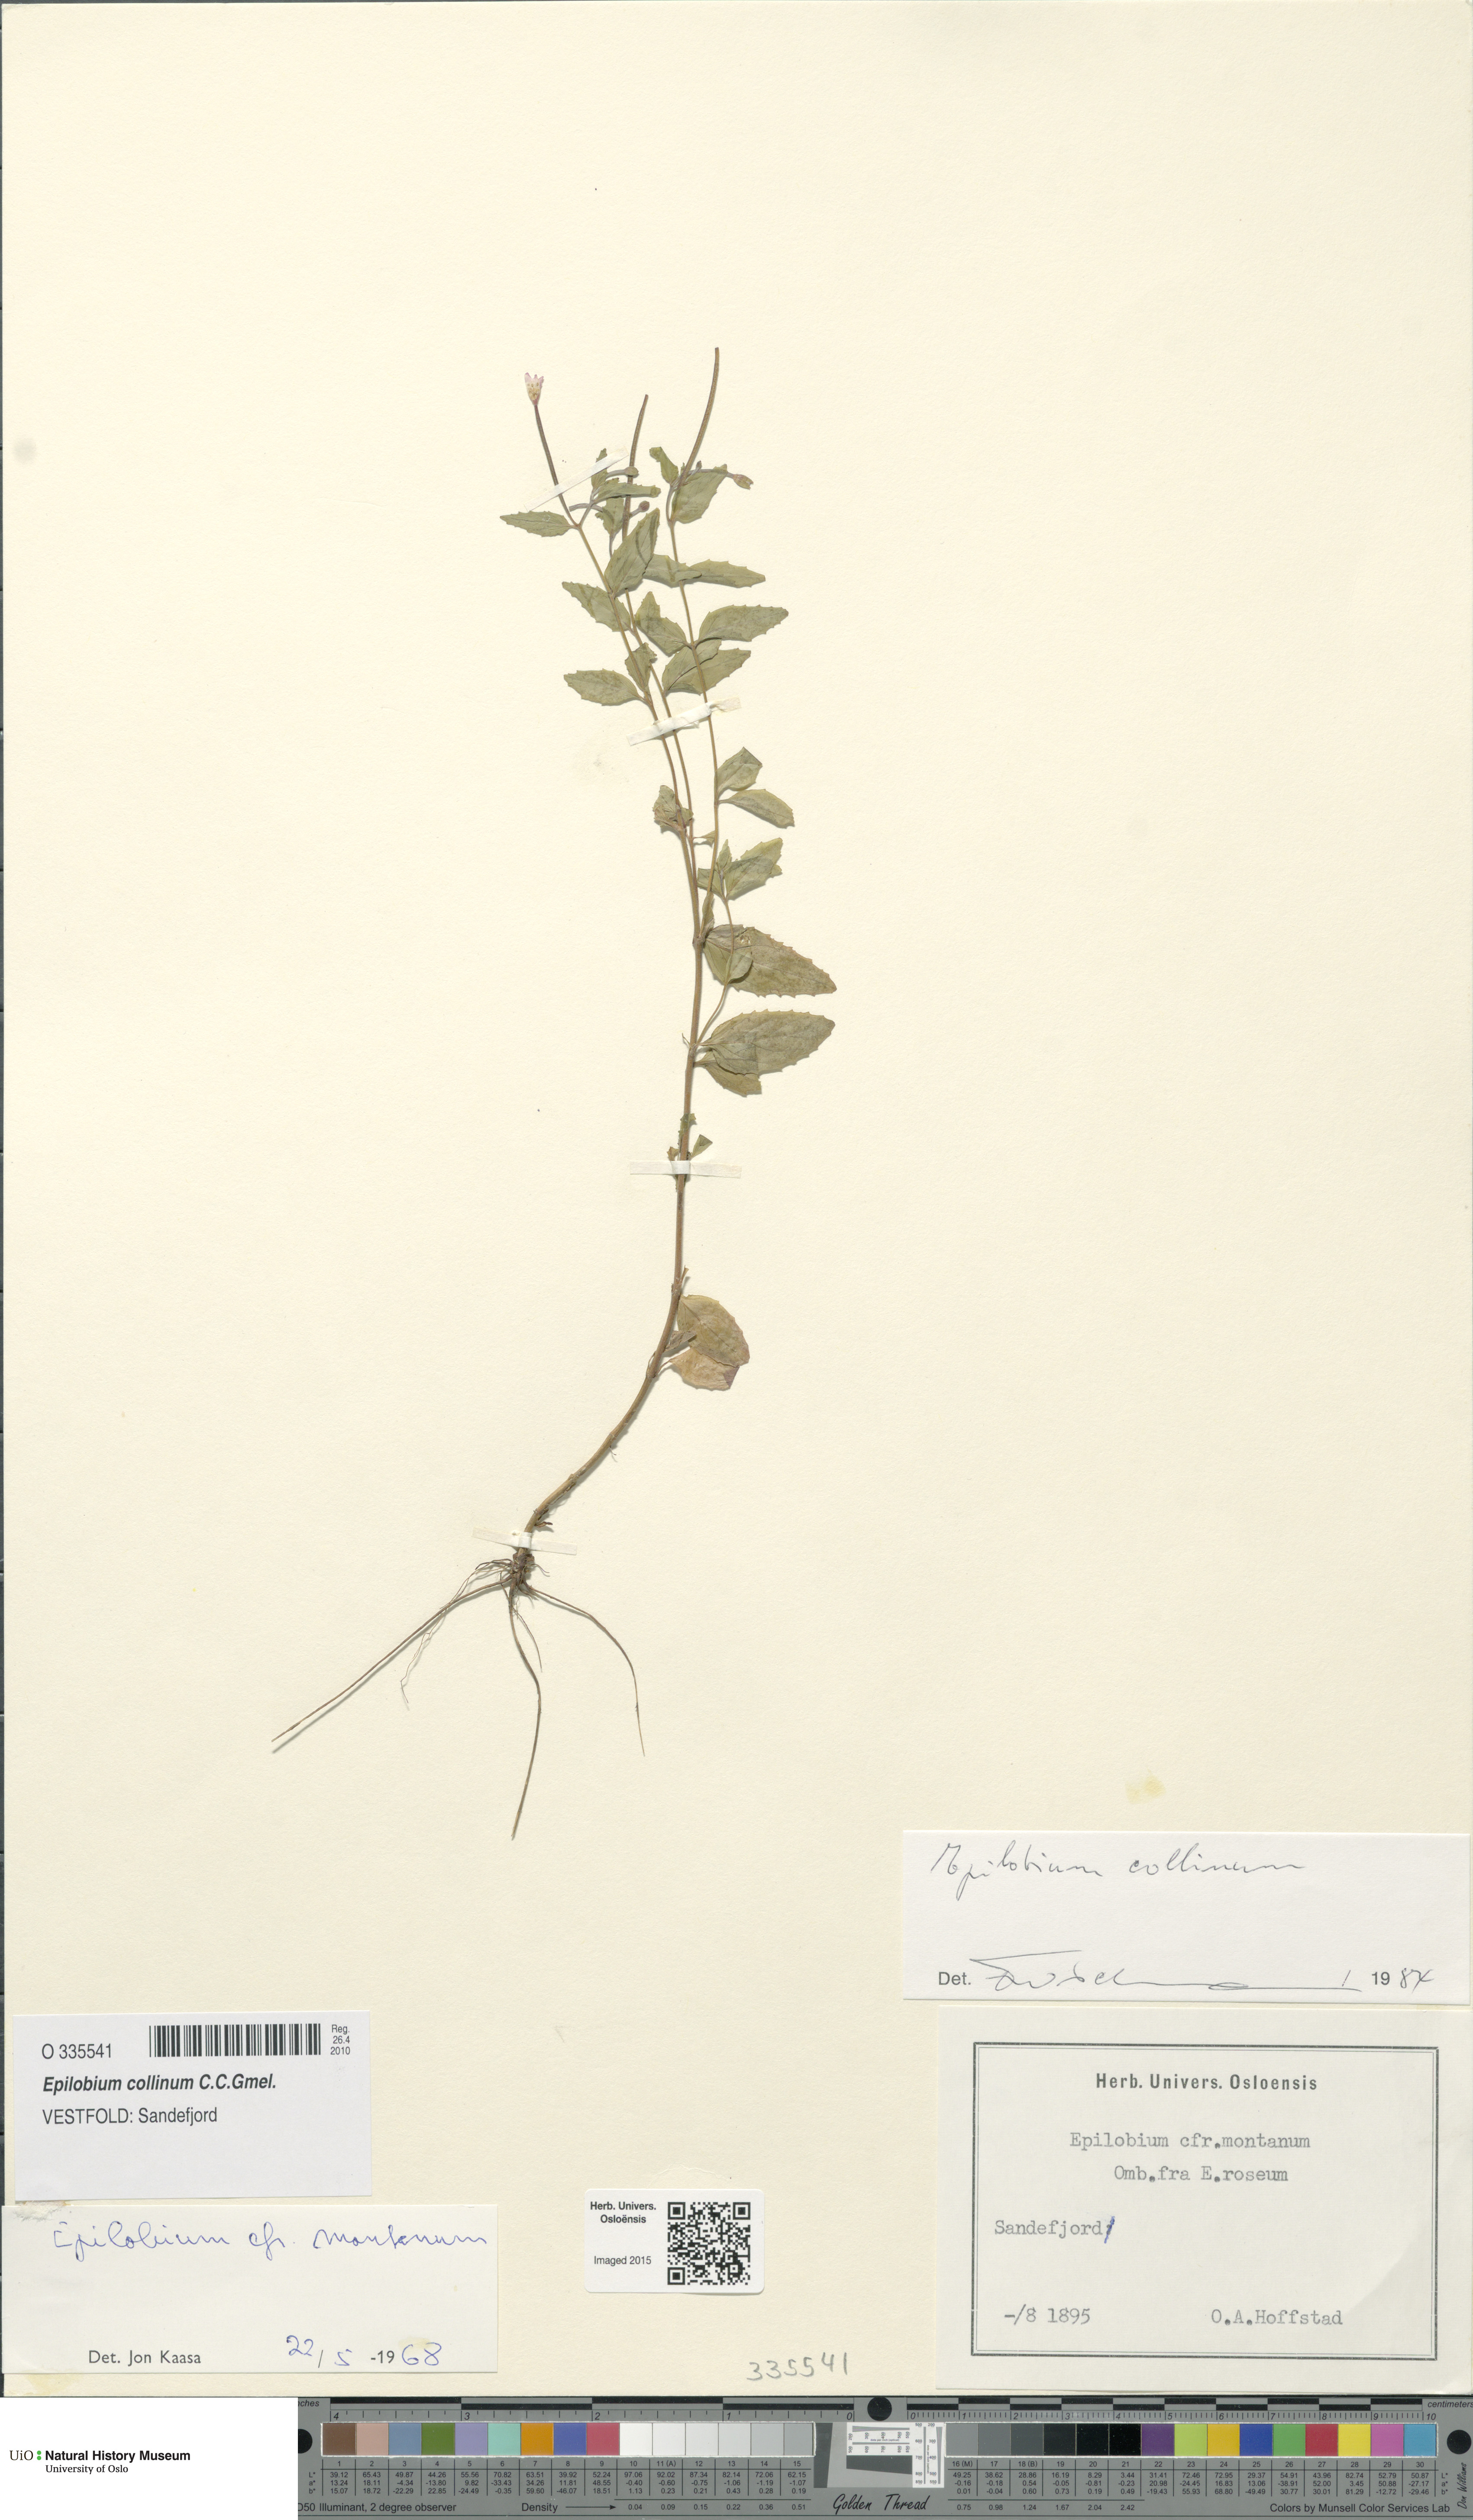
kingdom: Plantae
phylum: Tracheophyta
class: Magnoliopsida
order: Myrtales
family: Onagraceae
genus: Epilobium
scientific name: Epilobium collinum
